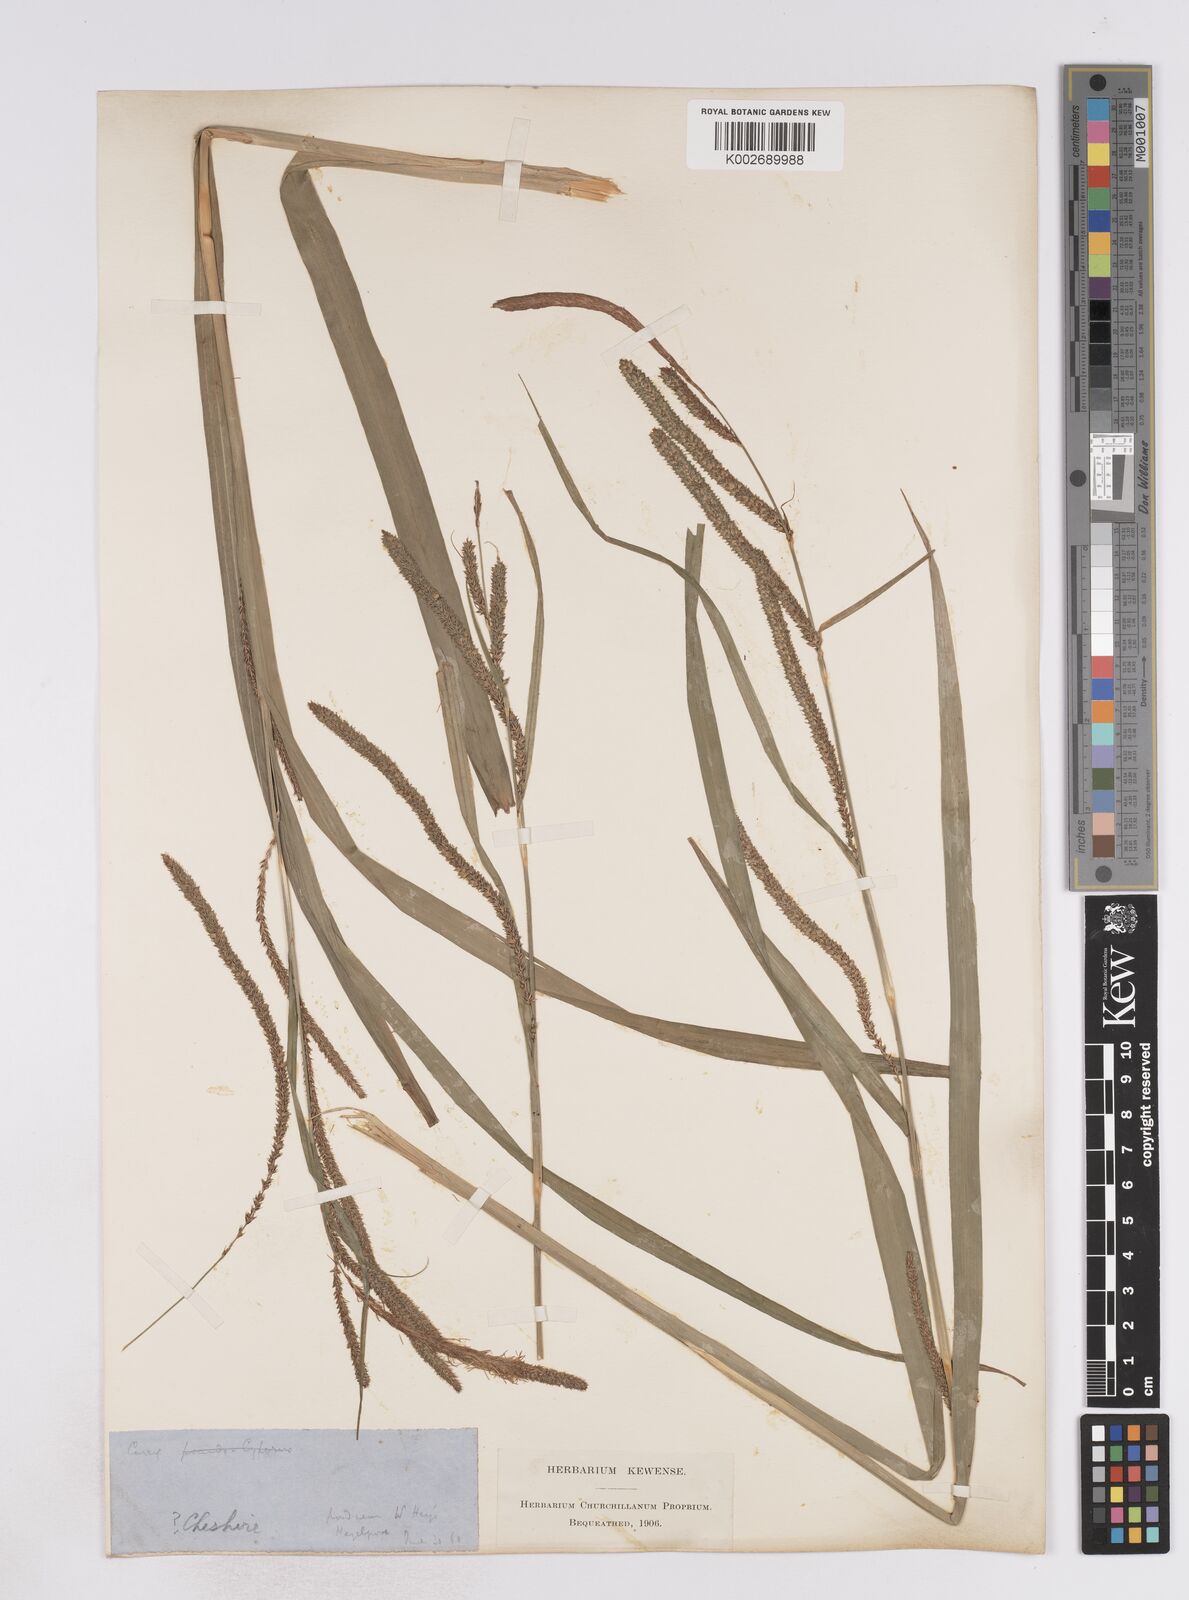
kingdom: Plantae
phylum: Tracheophyta
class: Liliopsida
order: Poales
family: Cyperaceae
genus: Carex
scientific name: Carex pendula
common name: Pendulous sedge
